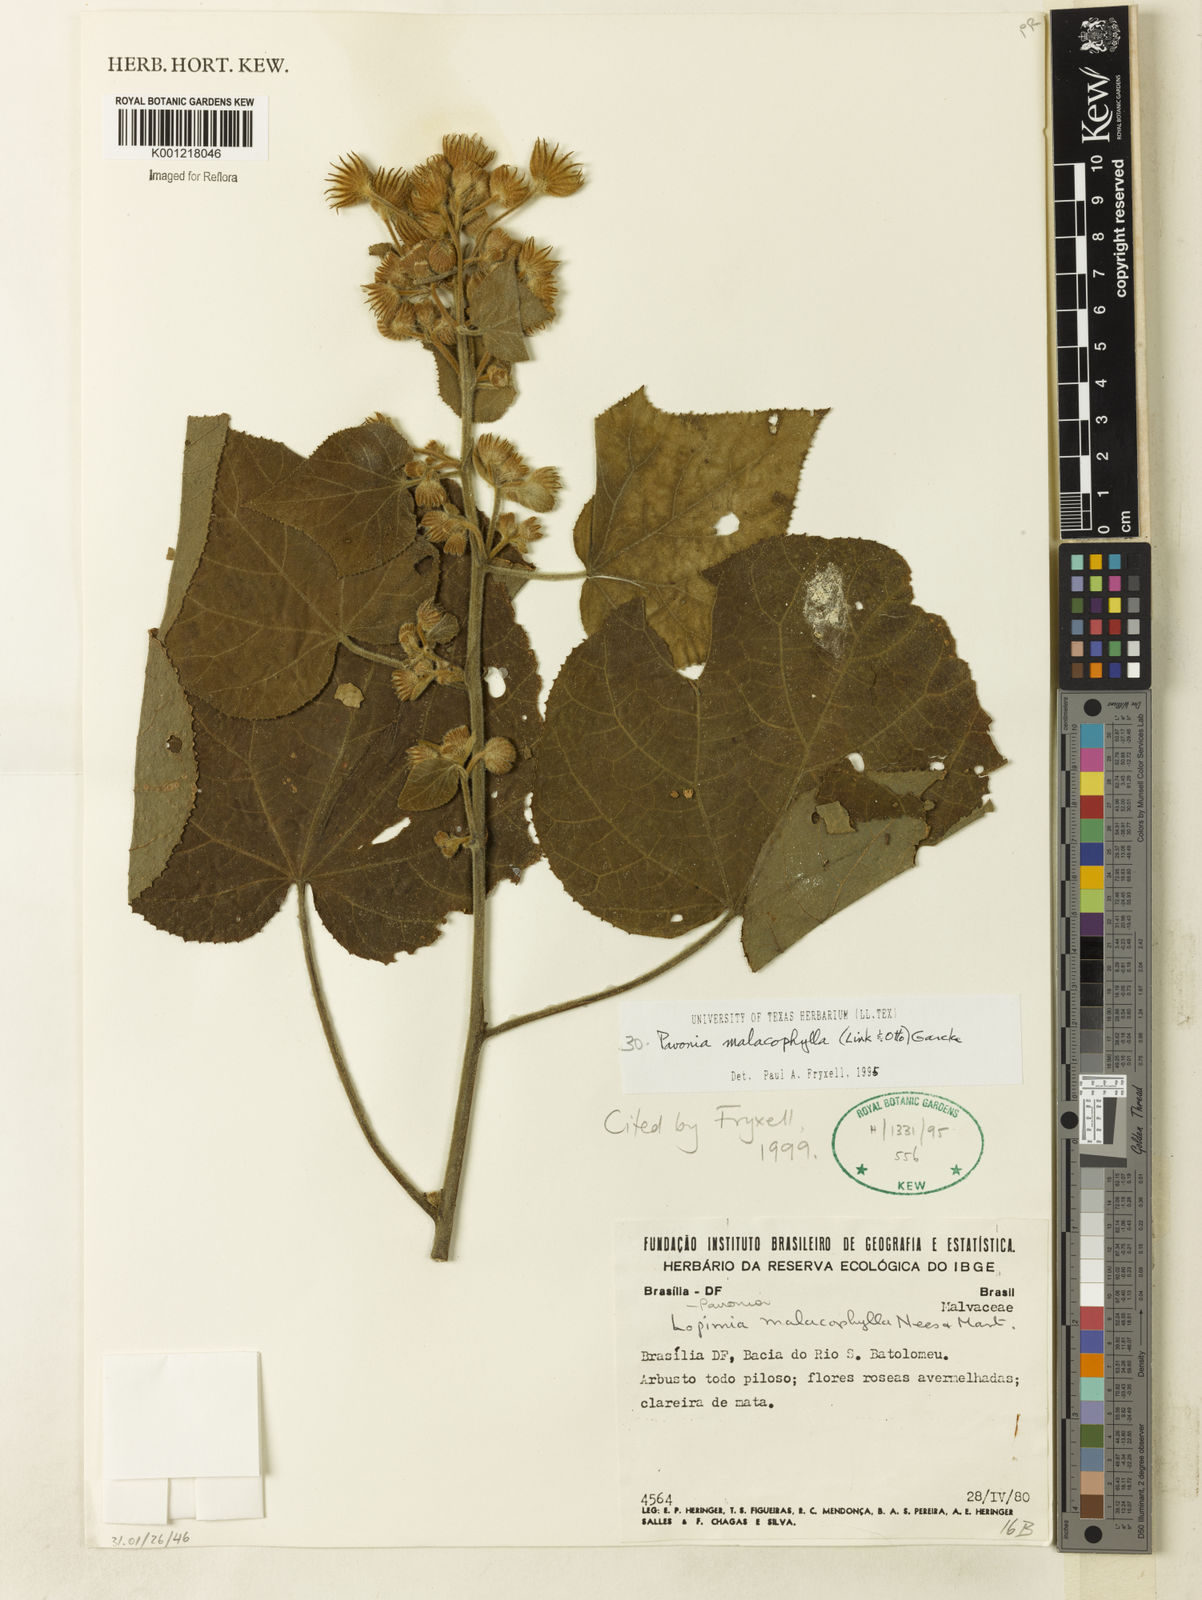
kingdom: Plantae
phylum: Tracheophyta
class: Magnoliopsida
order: Malvales
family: Malvaceae
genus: Pavonia
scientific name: Pavonia malacophylla
